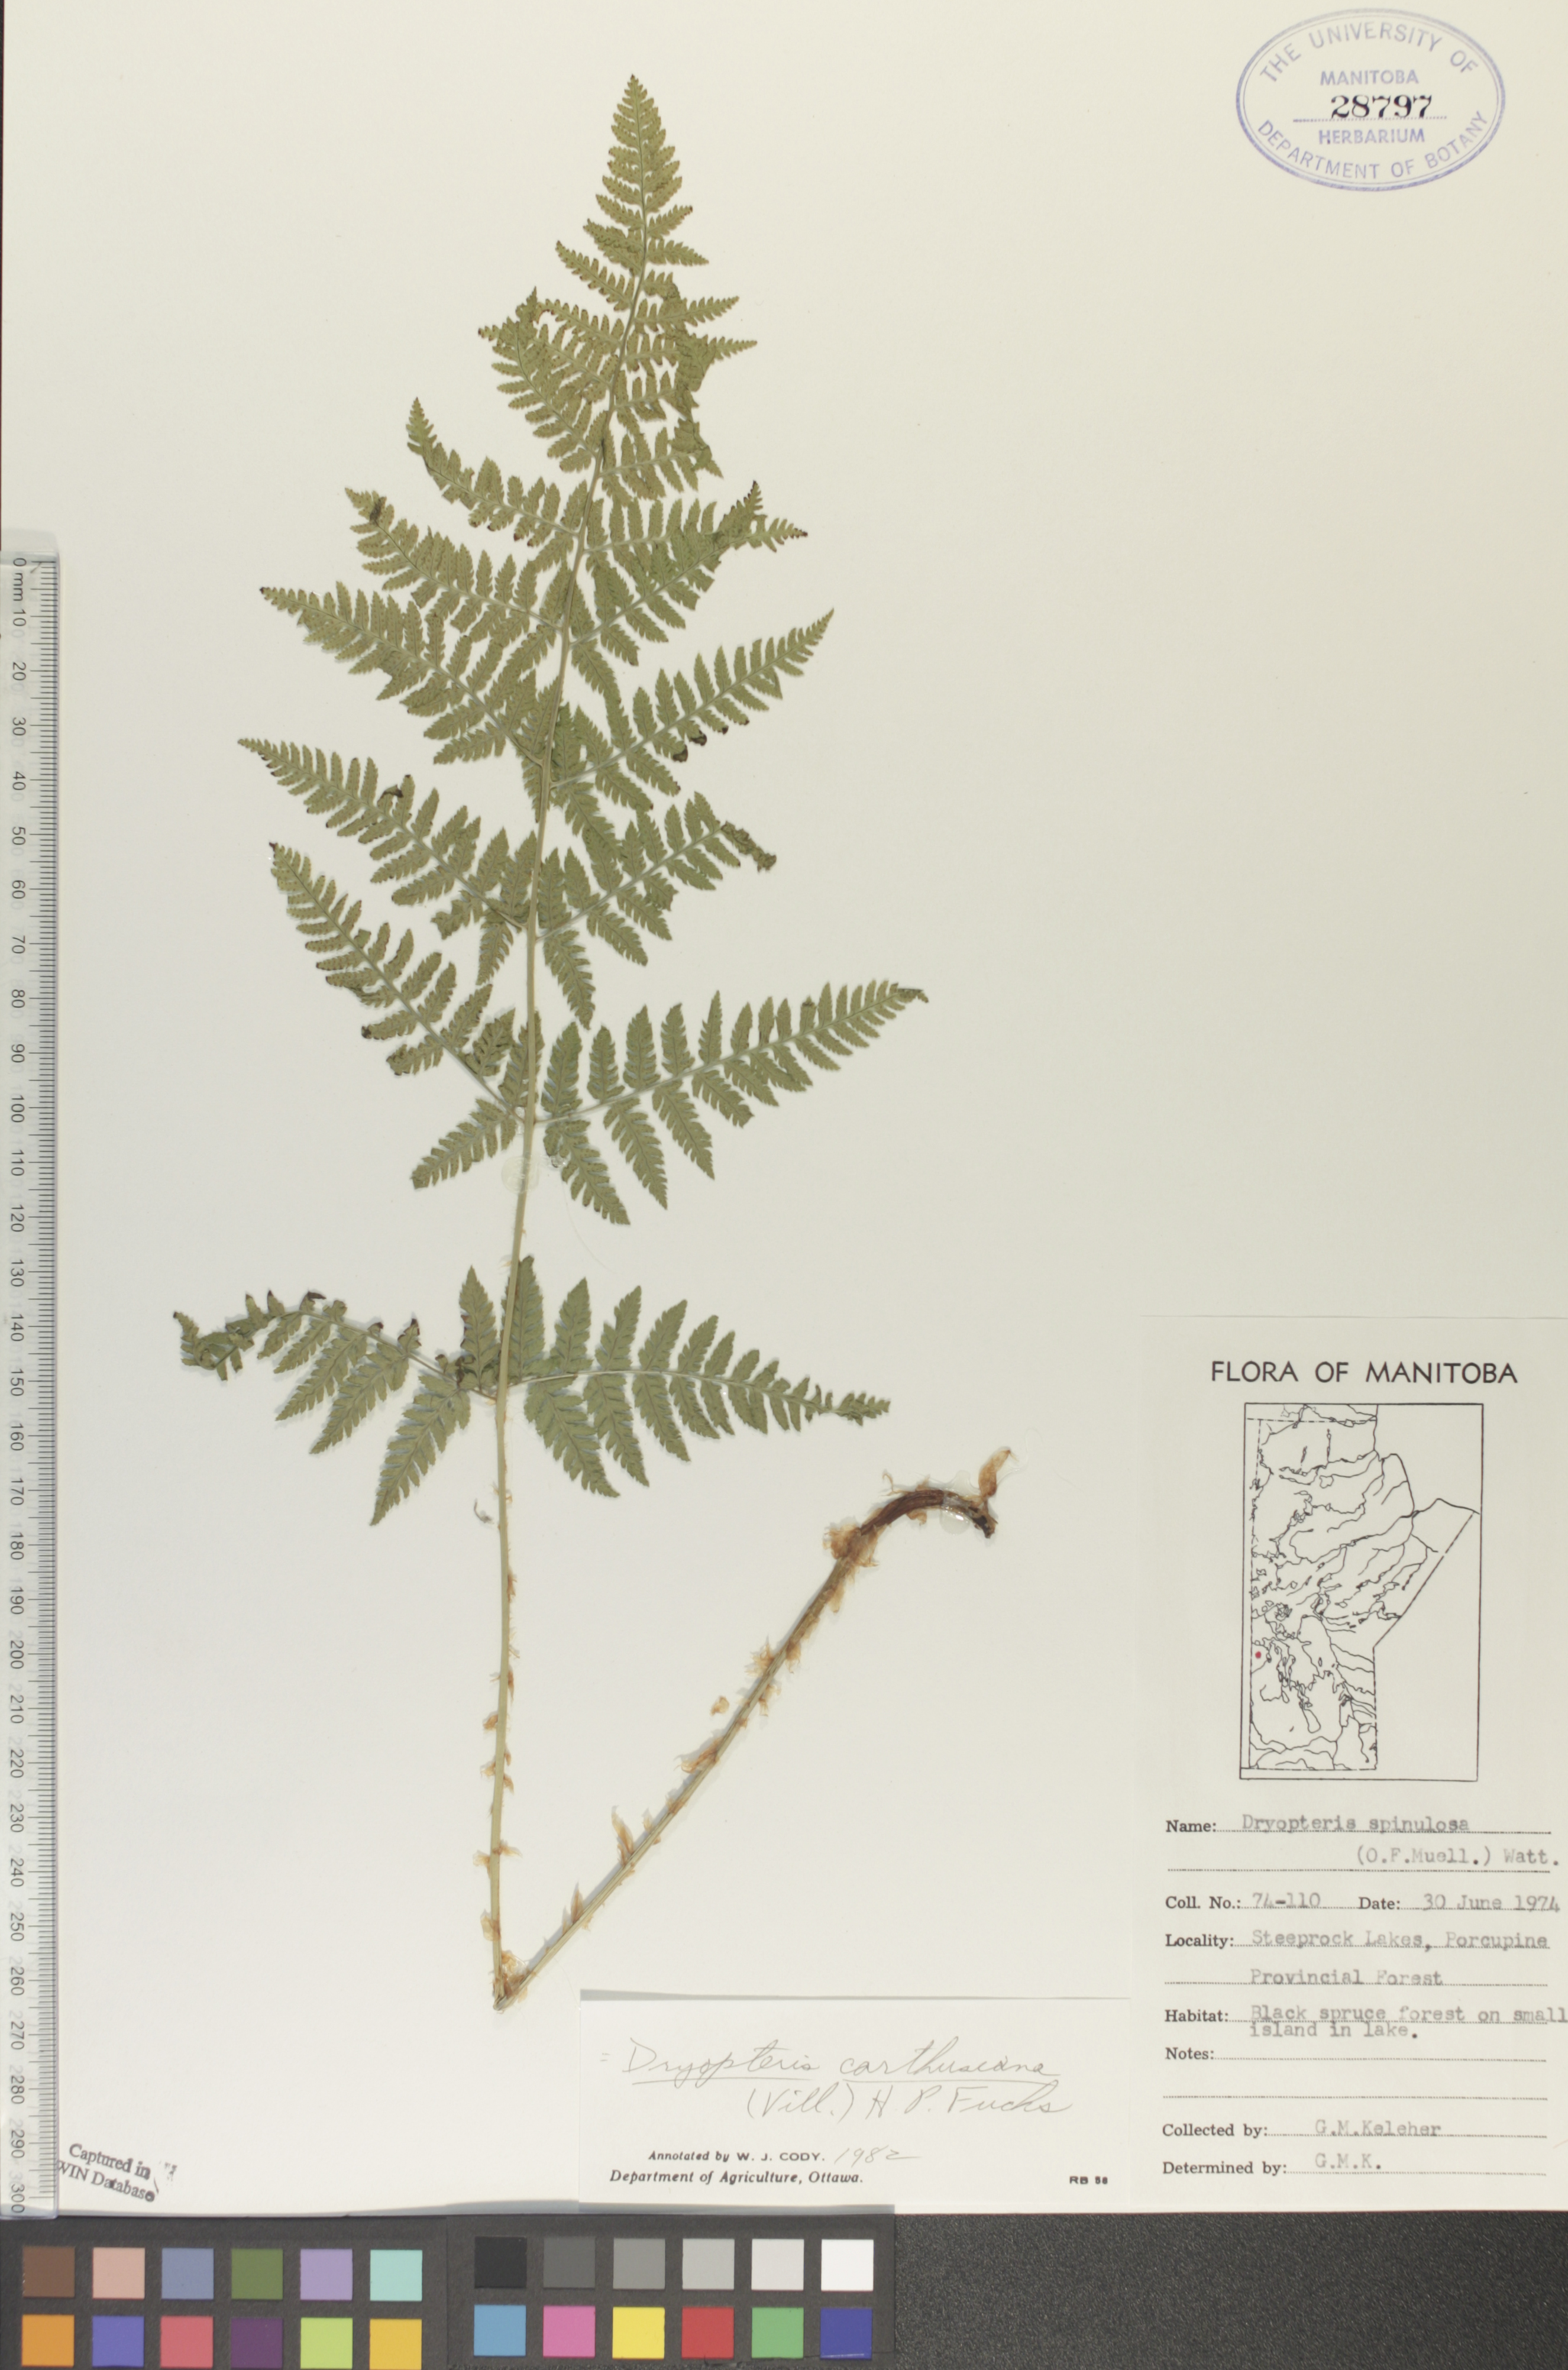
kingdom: Plantae
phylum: Tracheophyta
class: Polypodiopsida
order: Polypodiales
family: Dryopteridaceae
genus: Dryopteris
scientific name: Dryopteris carthusiana
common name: Narrow buckler-fern
